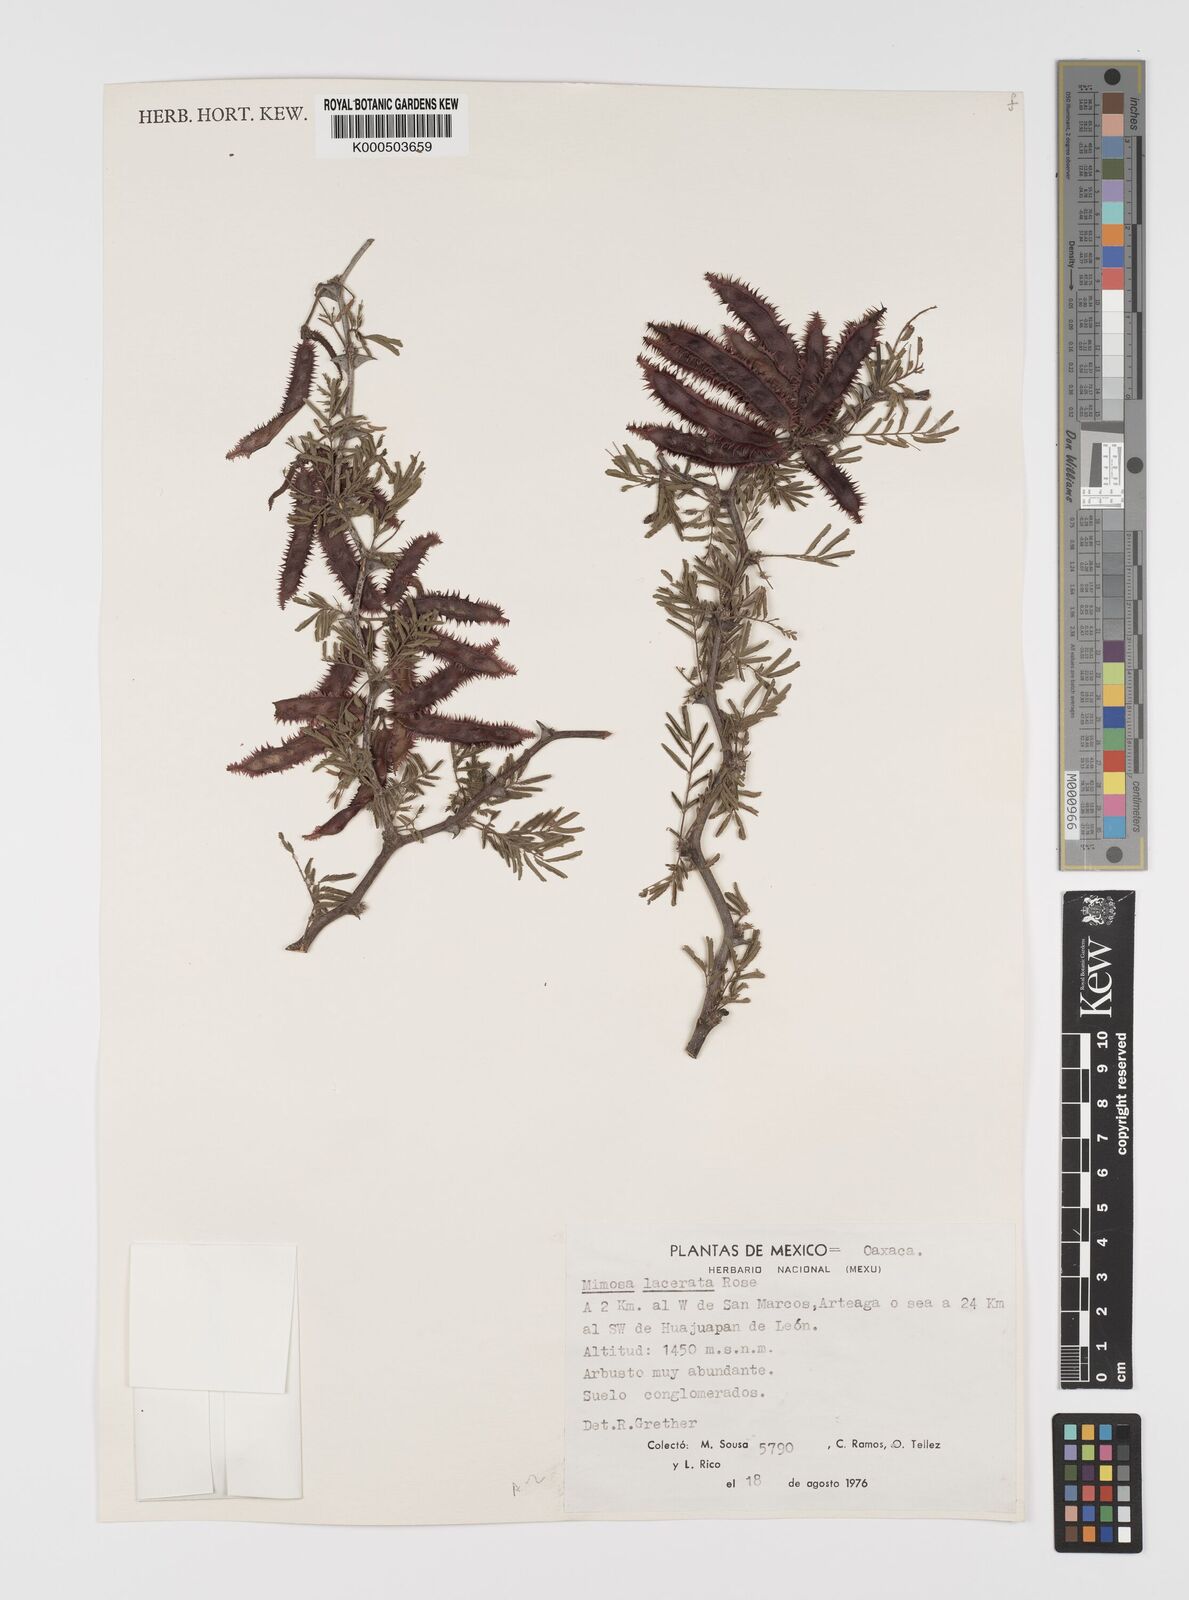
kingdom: Plantae
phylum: Tracheophyta
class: Magnoliopsida
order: Fabales
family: Fabaceae
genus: Mimosa
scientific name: Mimosa lacerata
